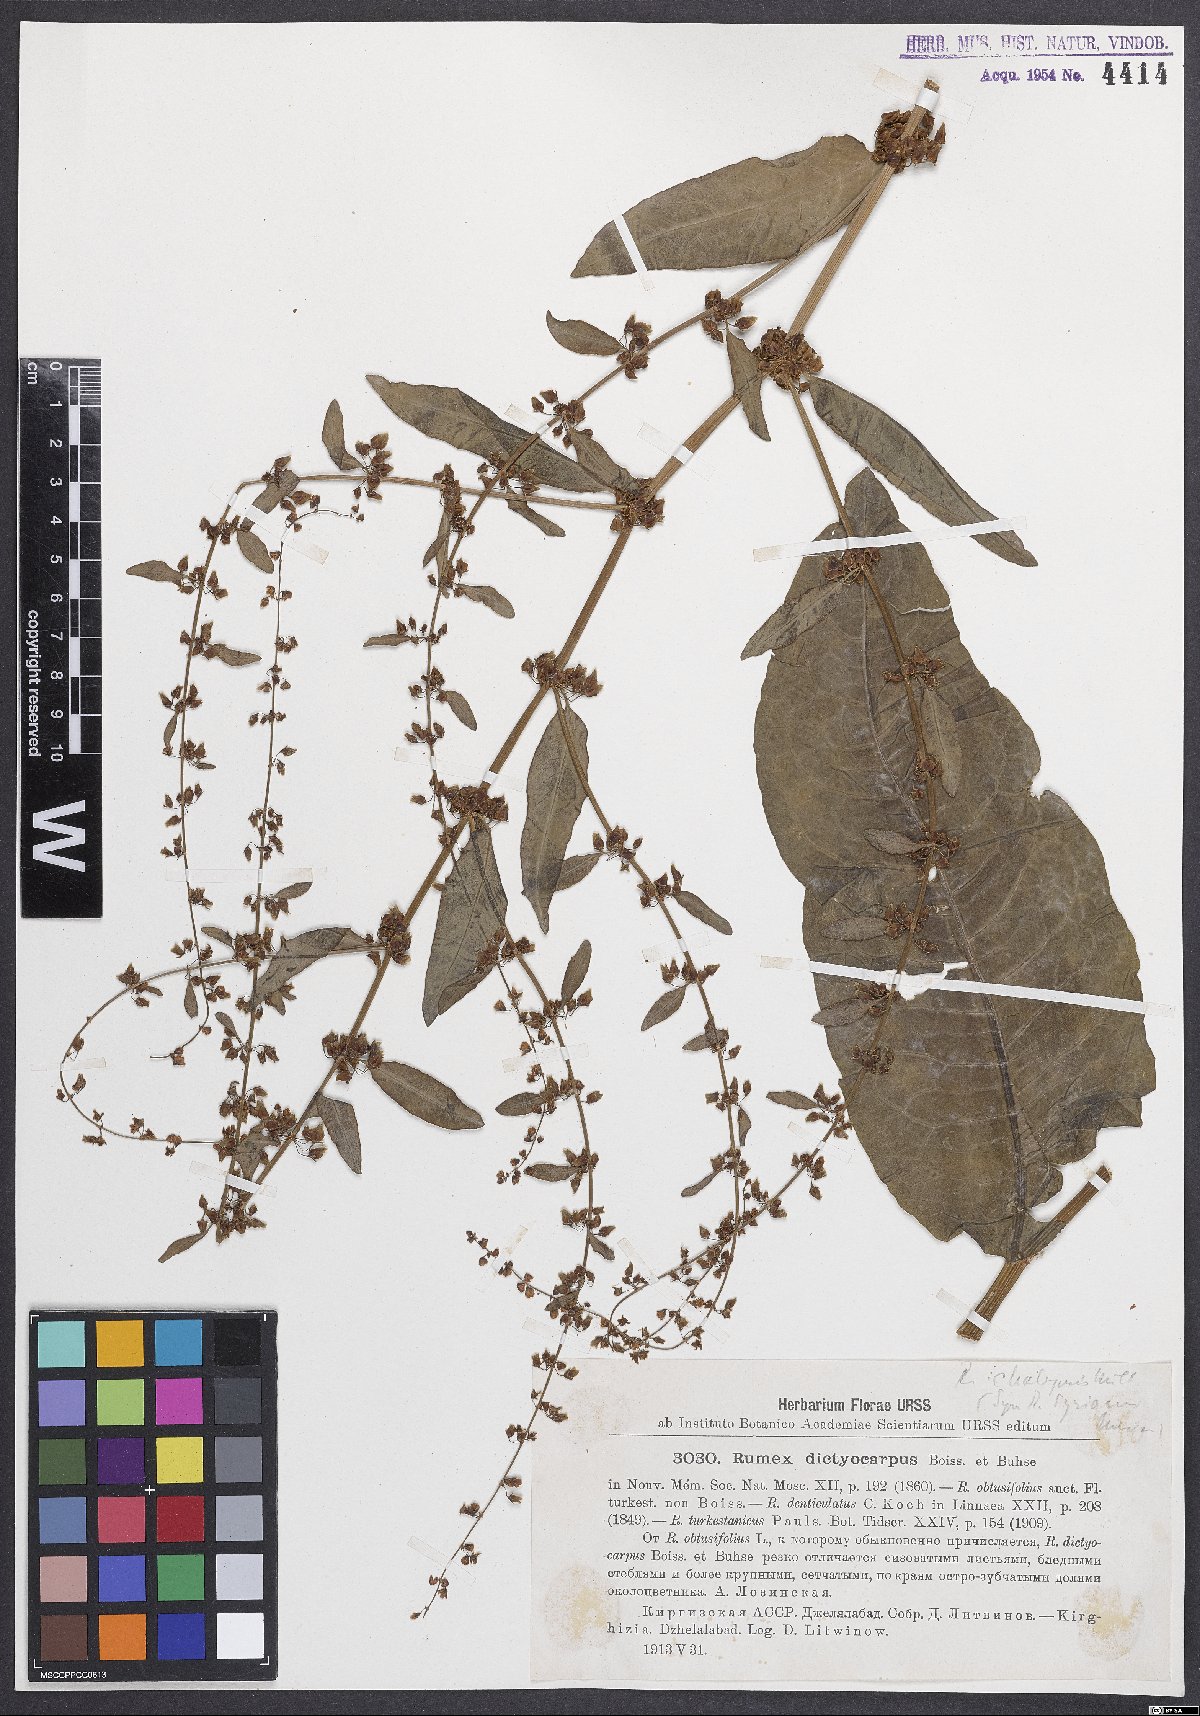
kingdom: Plantae
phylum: Tracheophyta
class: Magnoliopsida
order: Caryophyllales
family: Polygonaceae
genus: Rumex
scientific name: Rumex chalepensis
